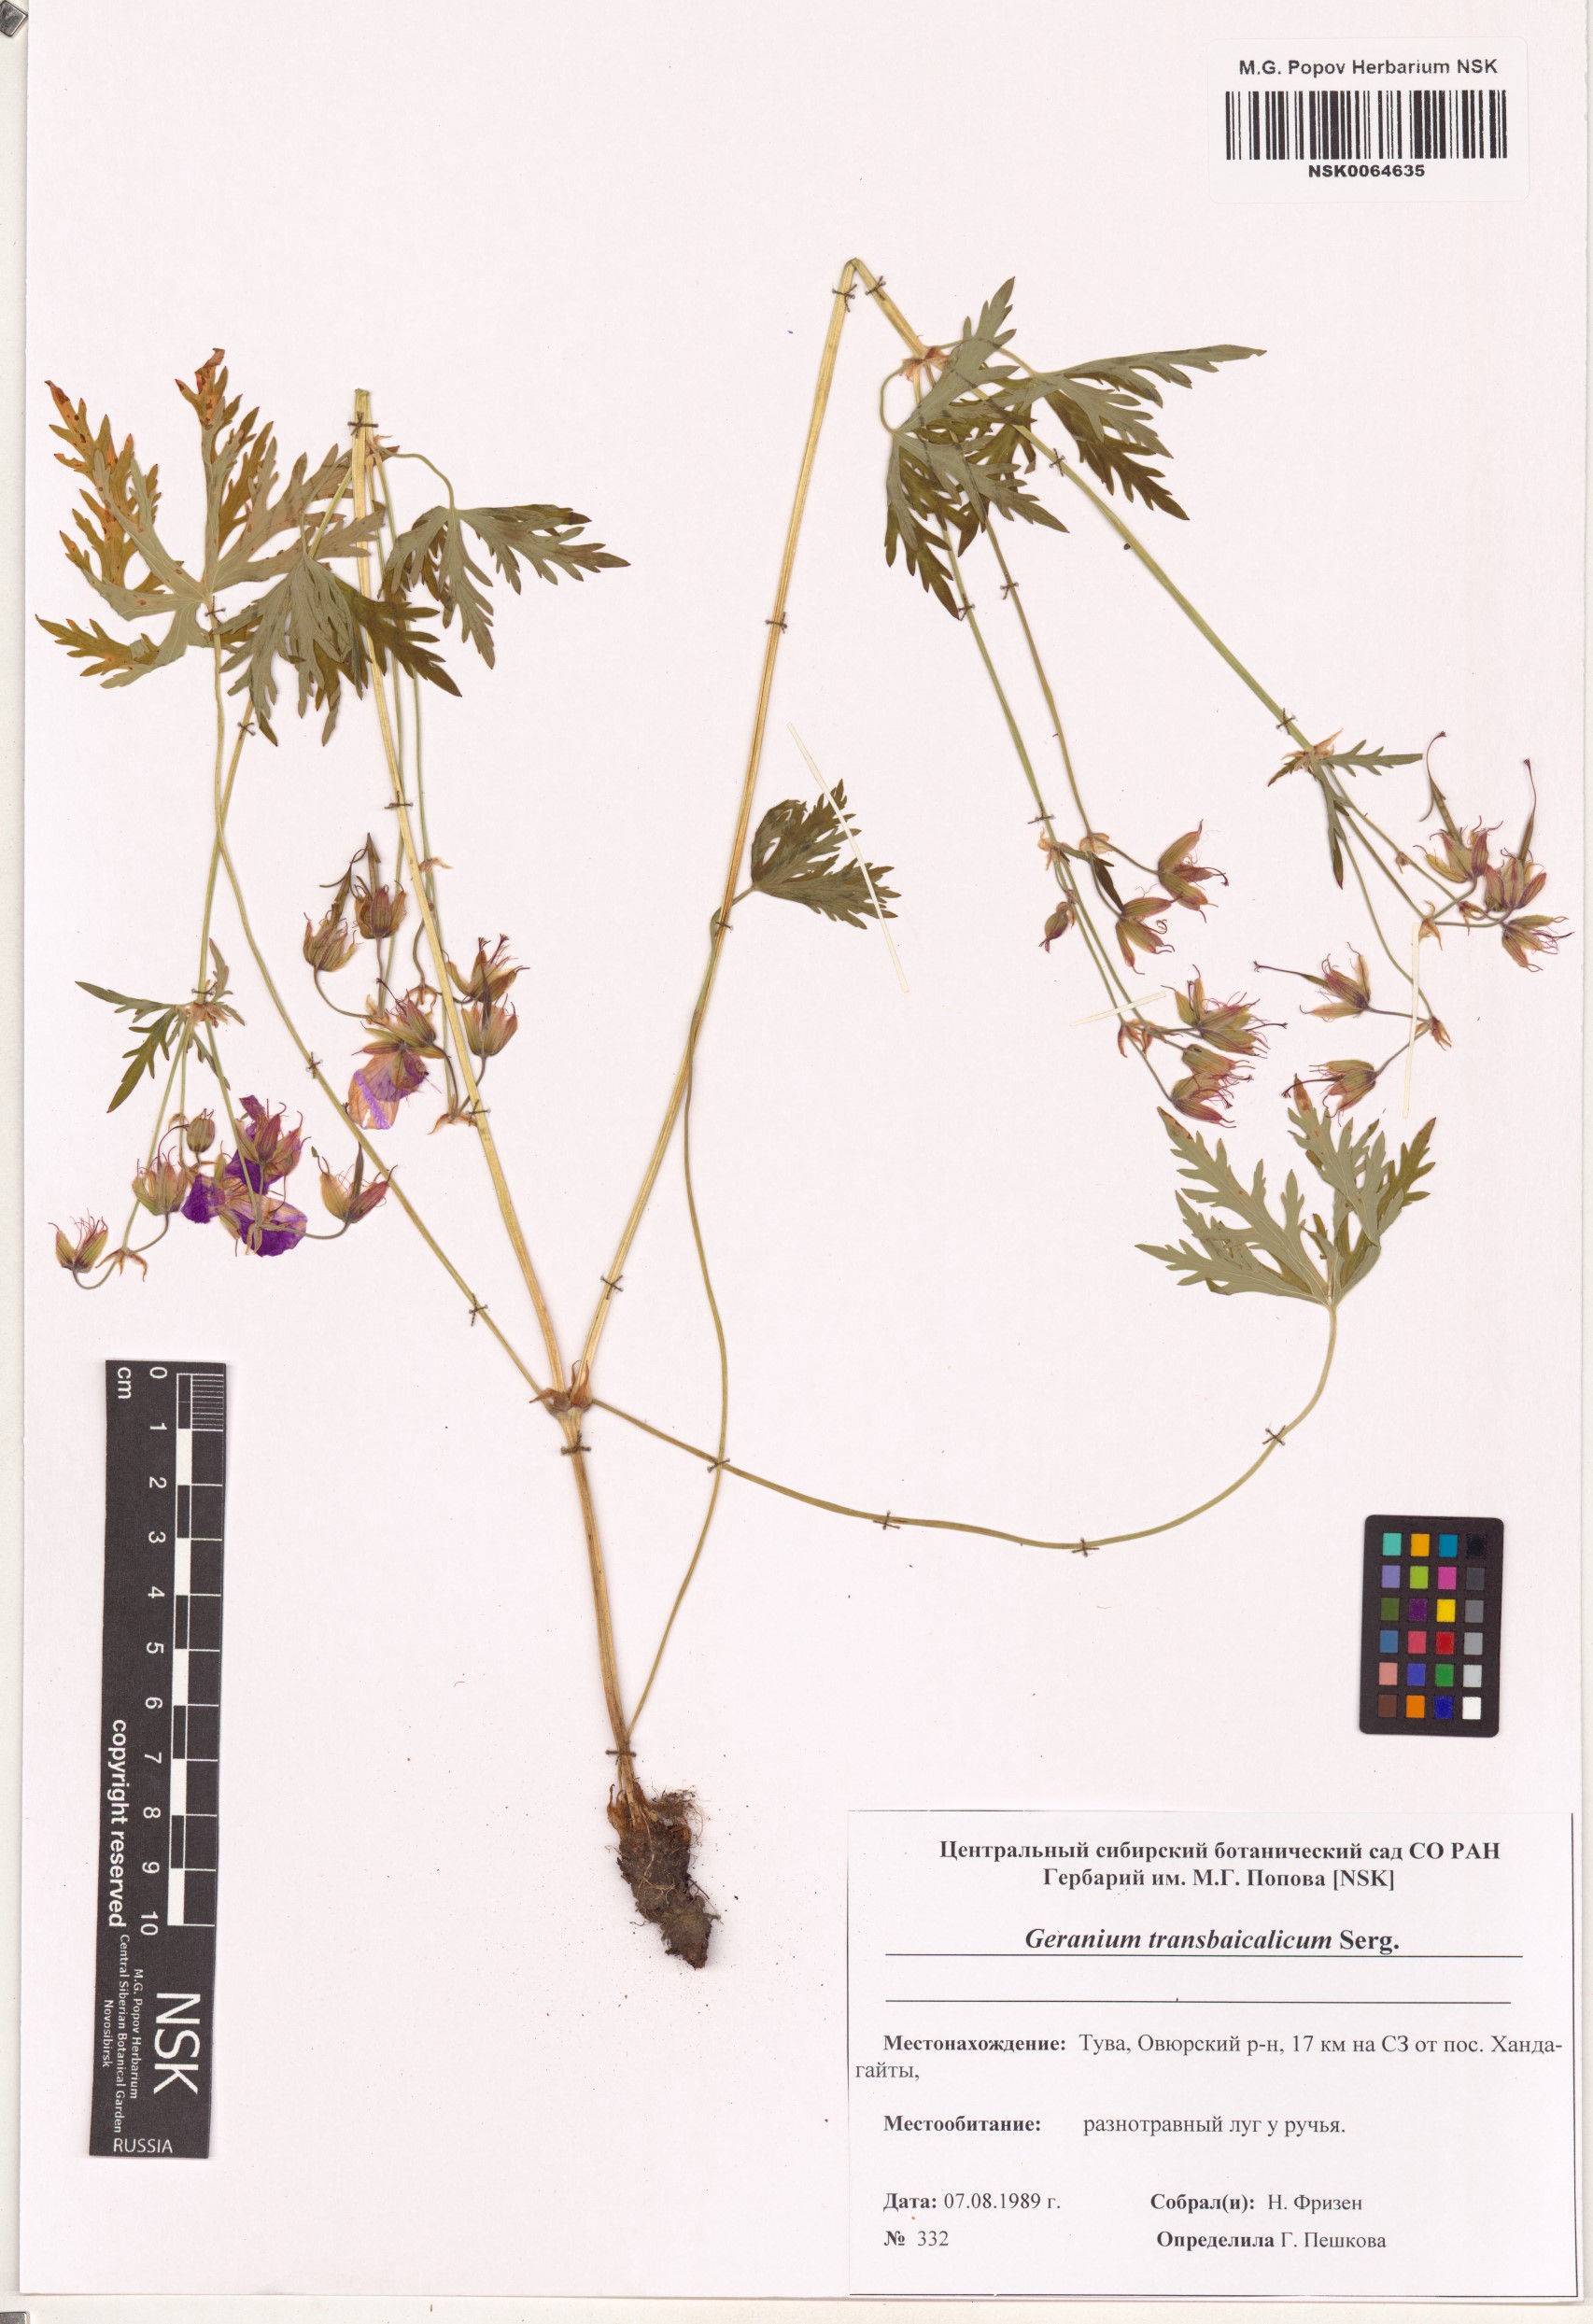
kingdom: Plantae
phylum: Tracheophyta
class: Magnoliopsida
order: Geraniales
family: Geraniaceae
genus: Geranium
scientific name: Geranium pratense
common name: Meadow crane's-bill
